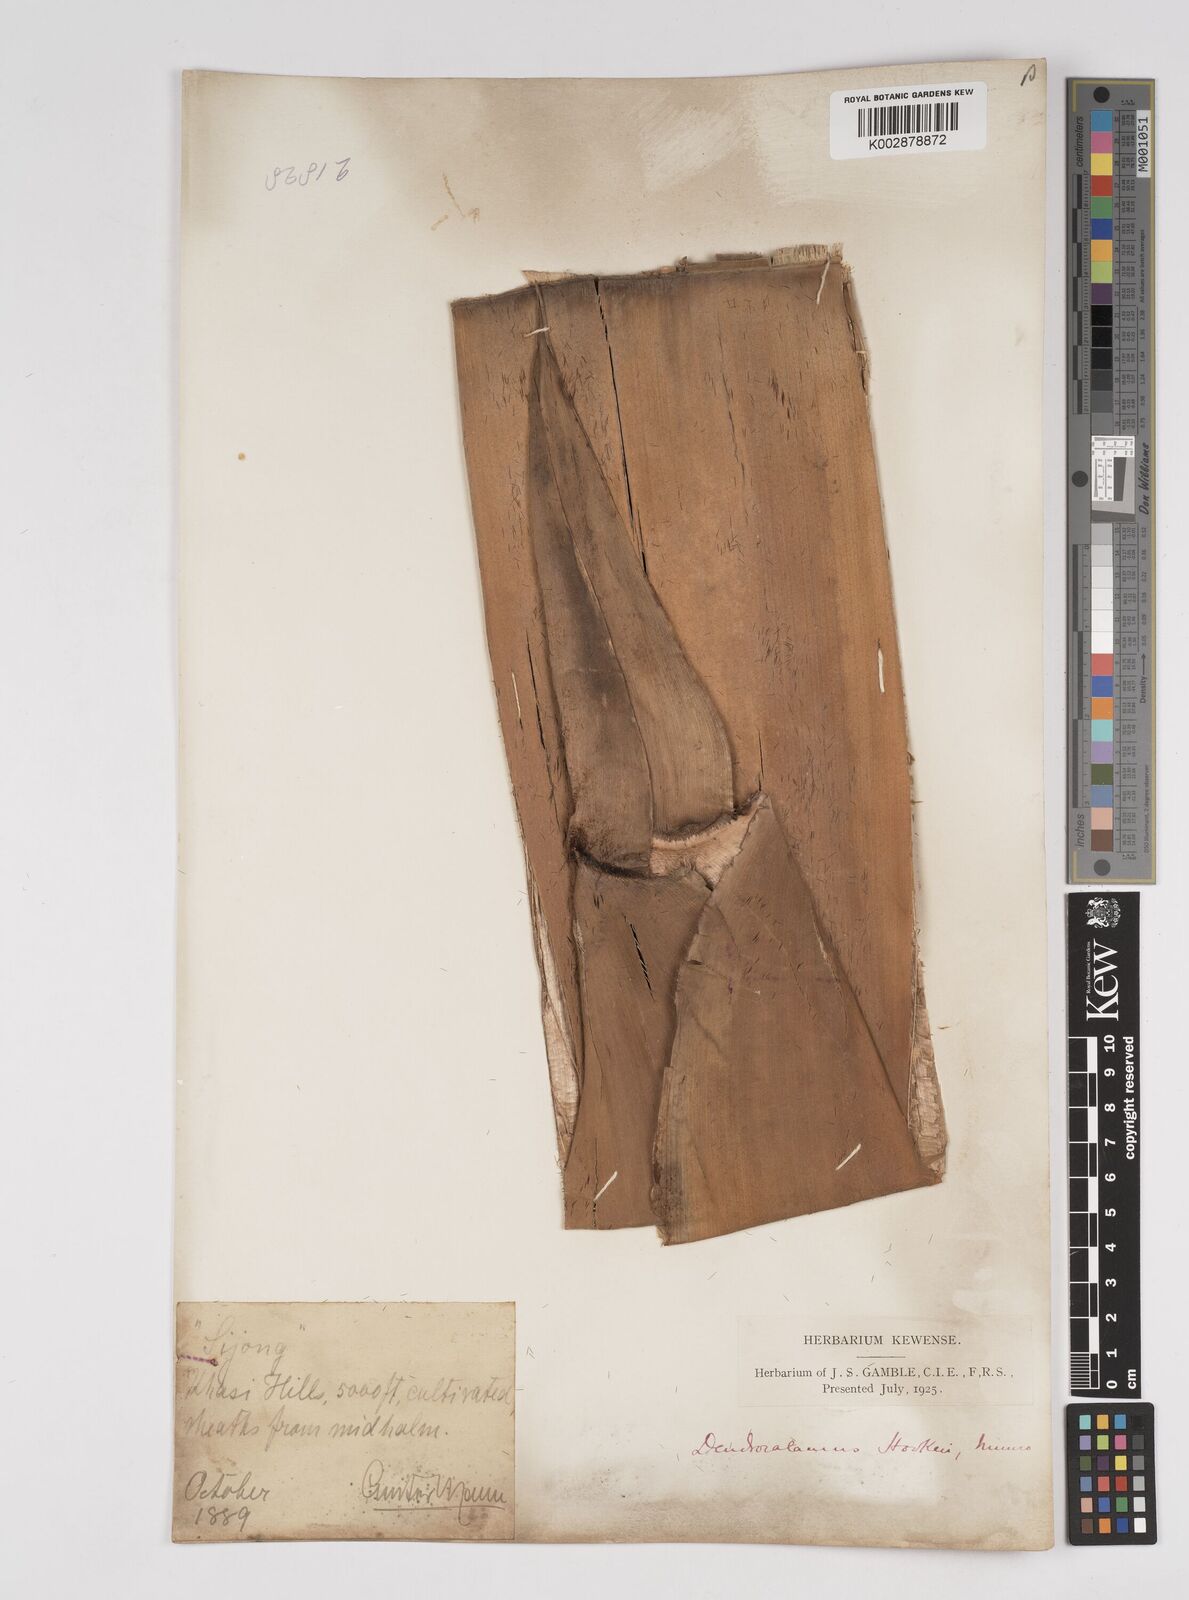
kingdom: Plantae
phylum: Tracheophyta
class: Liliopsida
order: Poales
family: Poaceae
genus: Dendrocalamus
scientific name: Dendrocalamus hookeri
